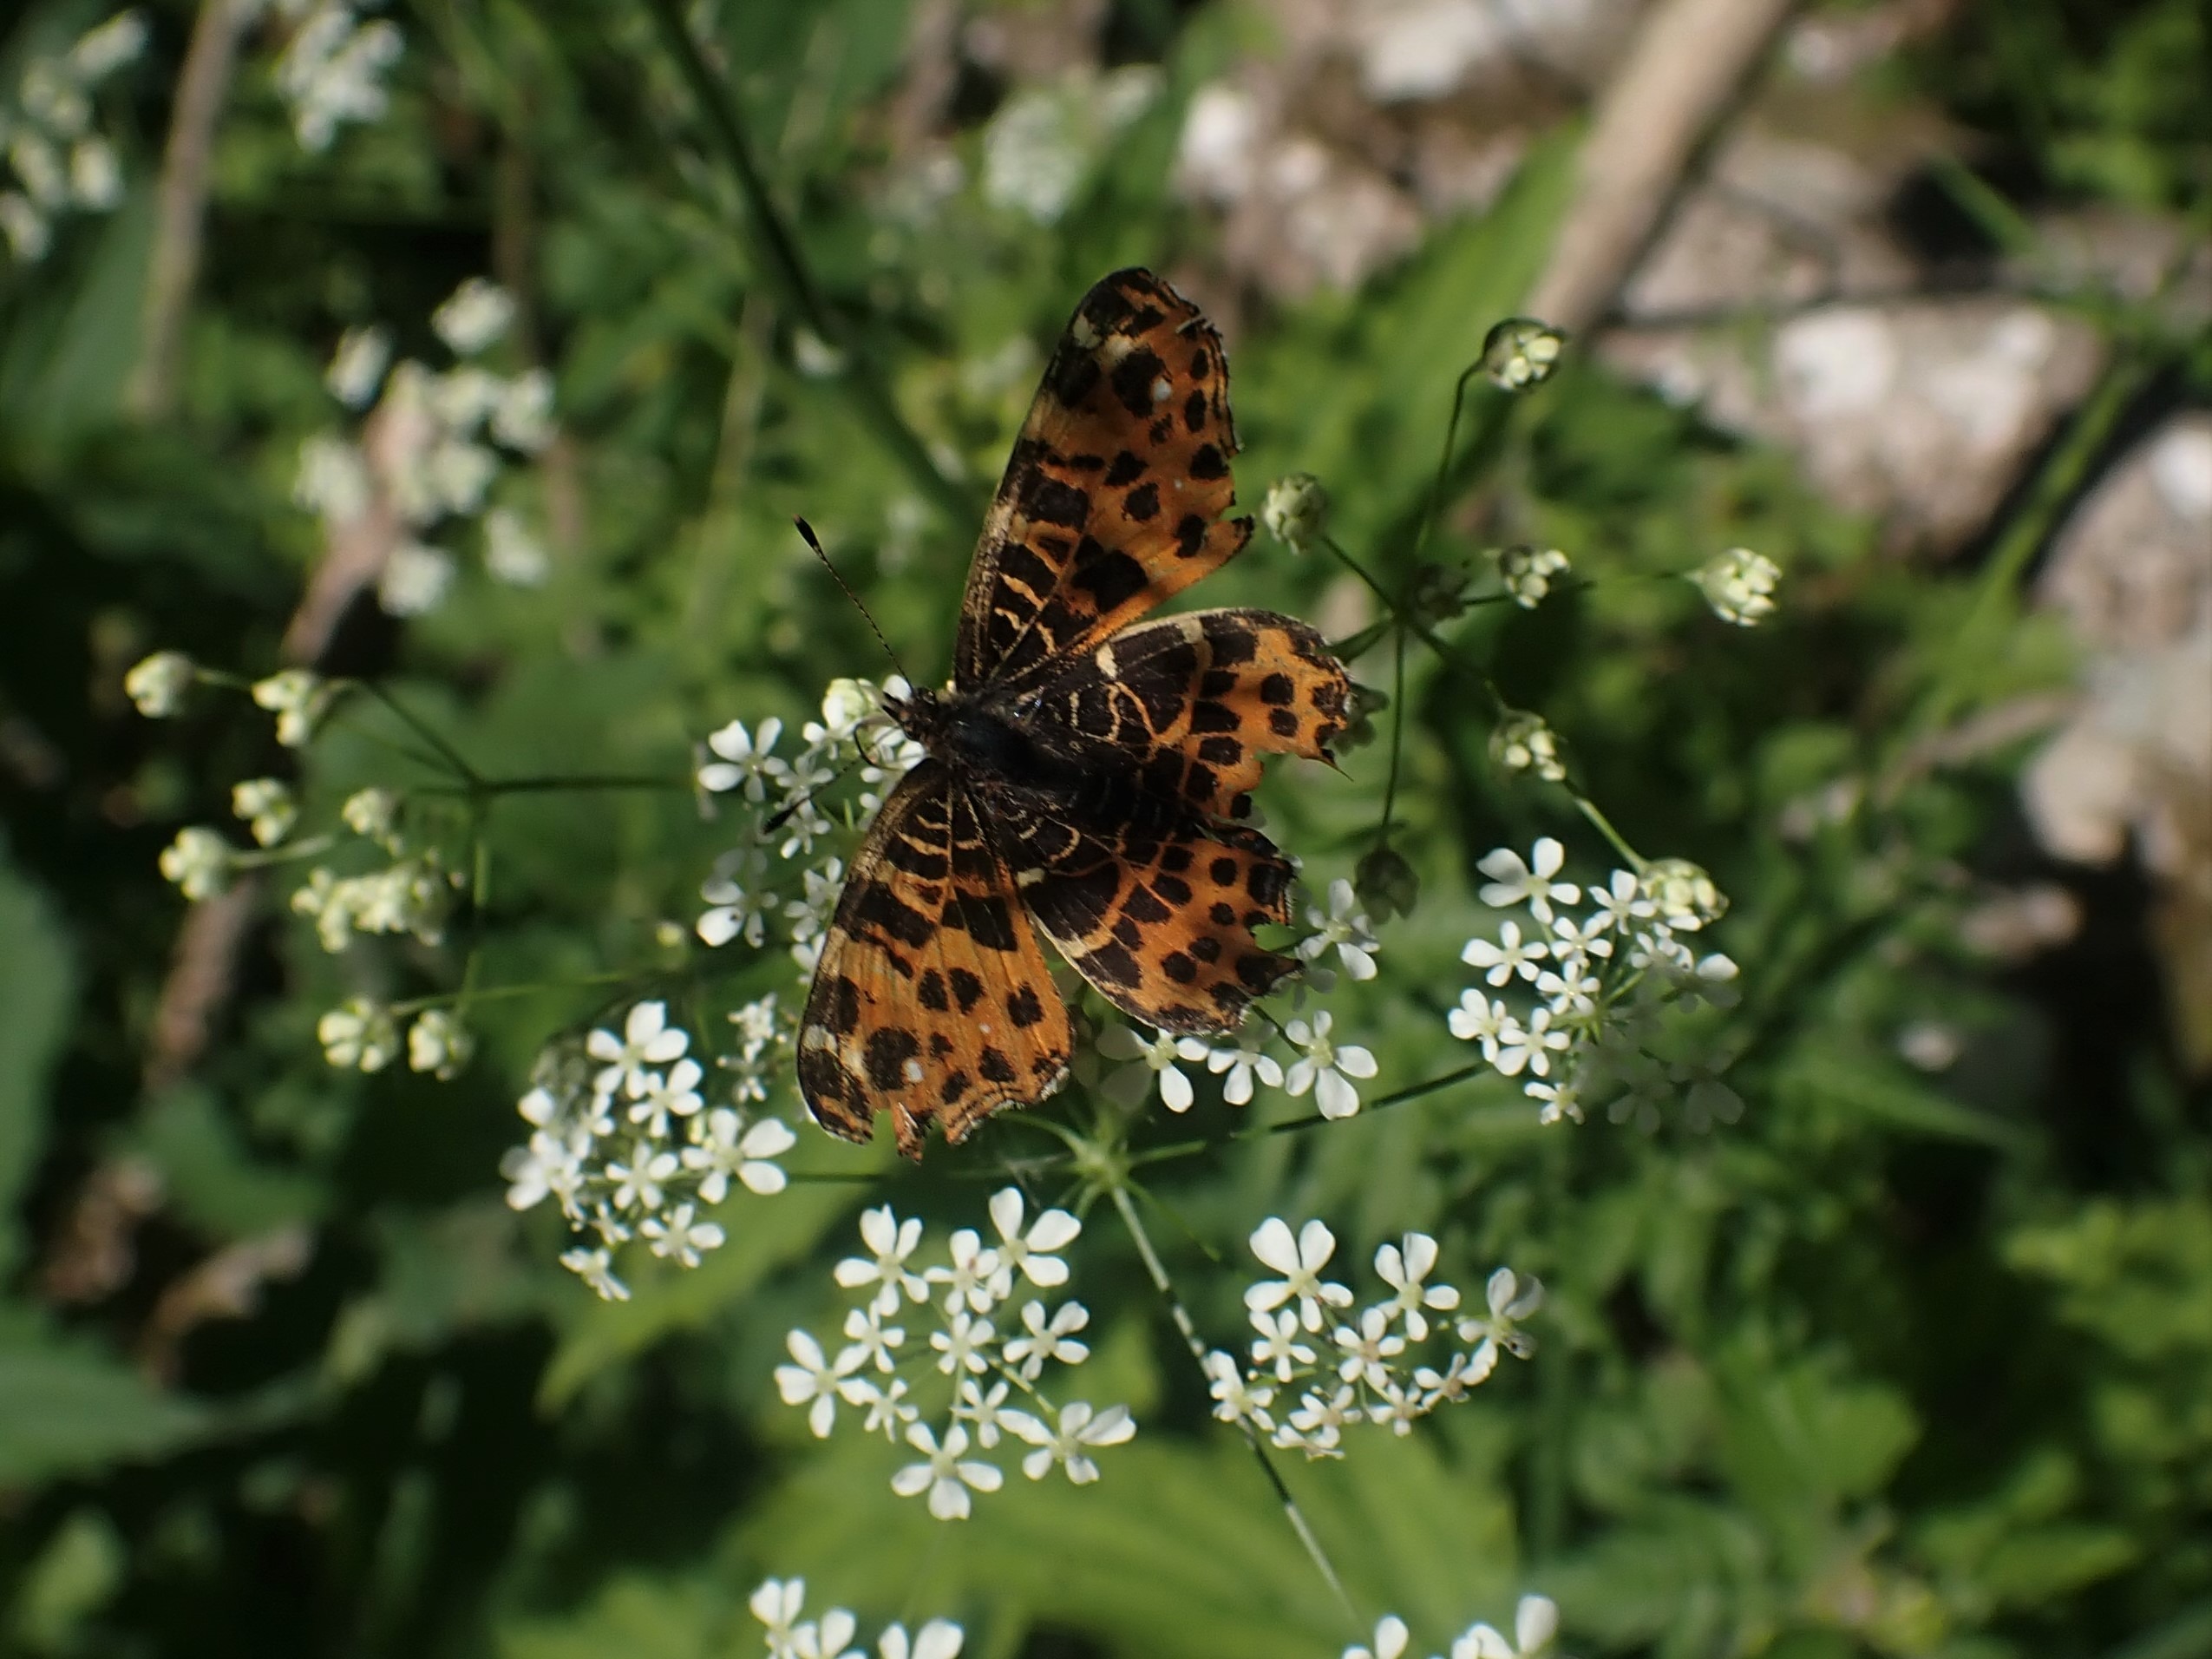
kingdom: Animalia
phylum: Arthropoda
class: Insecta
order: Lepidoptera
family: Nymphalidae
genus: Araschnia
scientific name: Araschnia levana
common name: Nældesommerfugl
